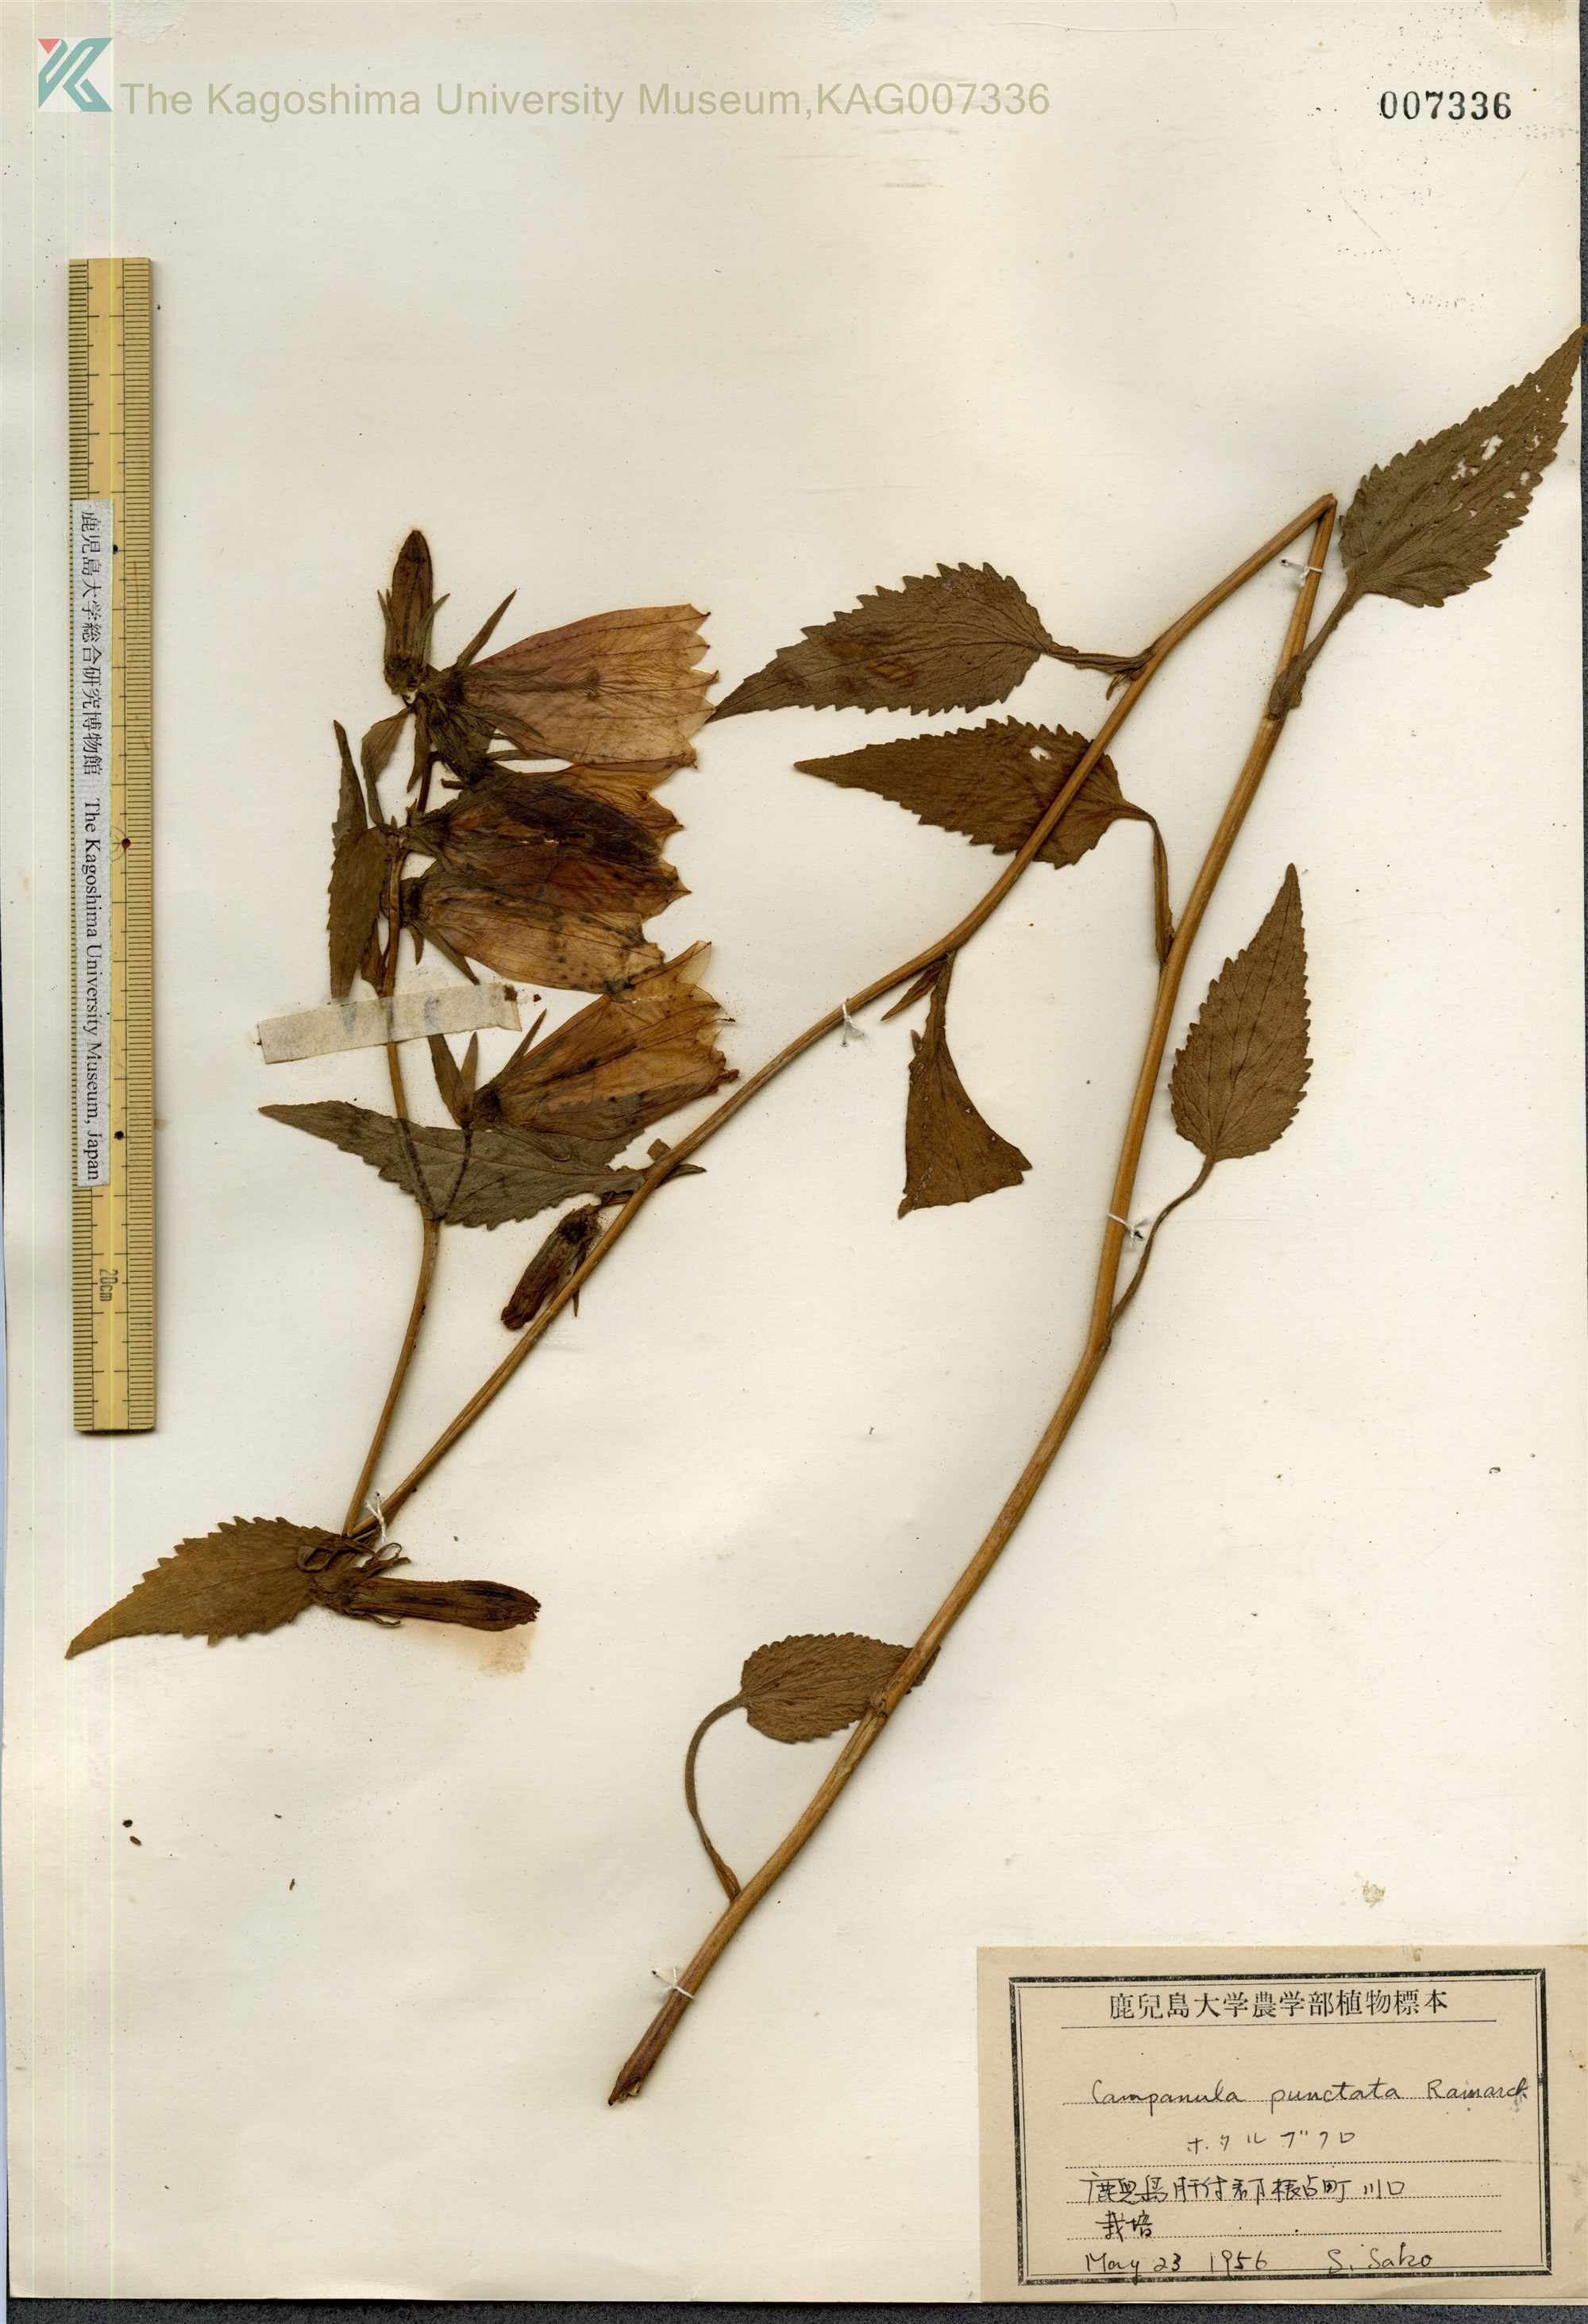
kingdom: Plantae
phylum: Tracheophyta
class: Magnoliopsida
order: Asterales
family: Campanulaceae
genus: Campanula
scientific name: Campanula punctata
